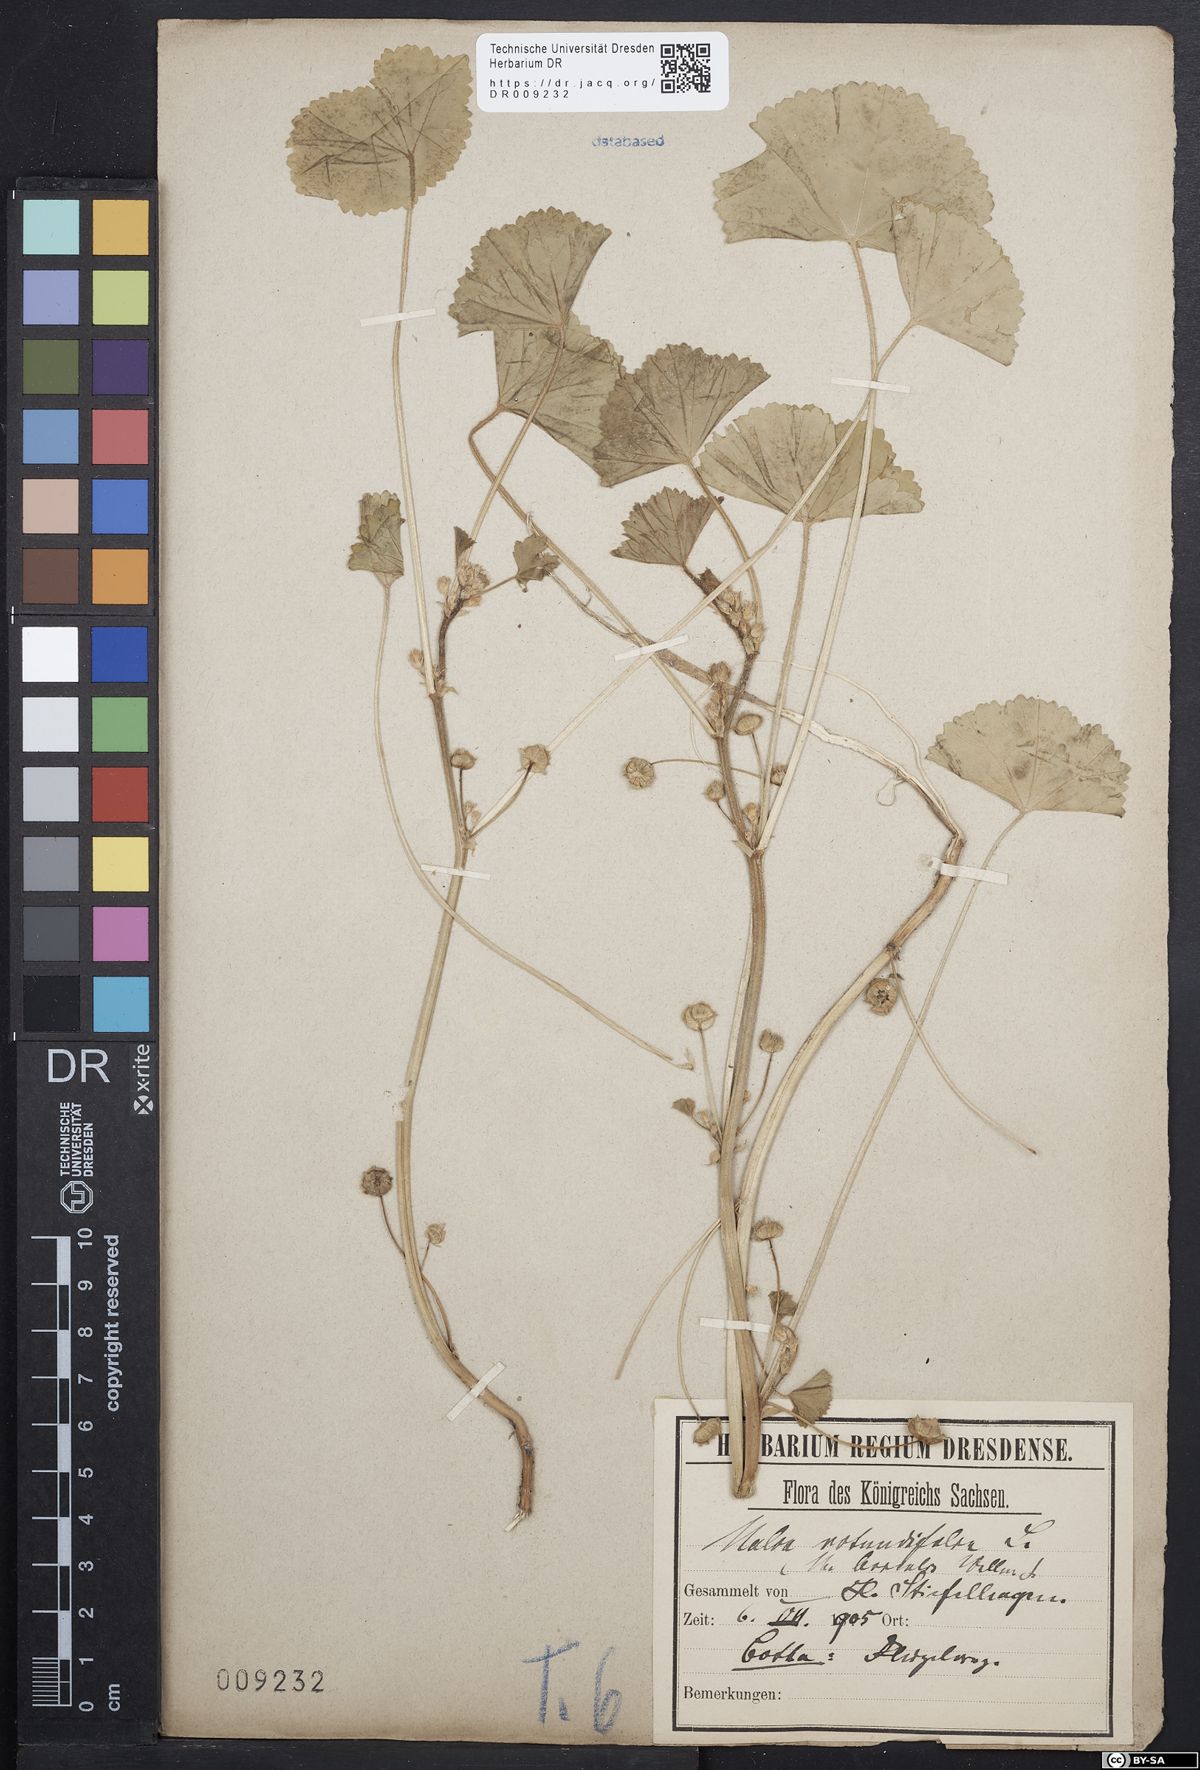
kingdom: Plantae
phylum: Tracheophyta
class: Magnoliopsida
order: Malvales
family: Malvaceae
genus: Malva
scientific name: Malva pusilla
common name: Small mallow
